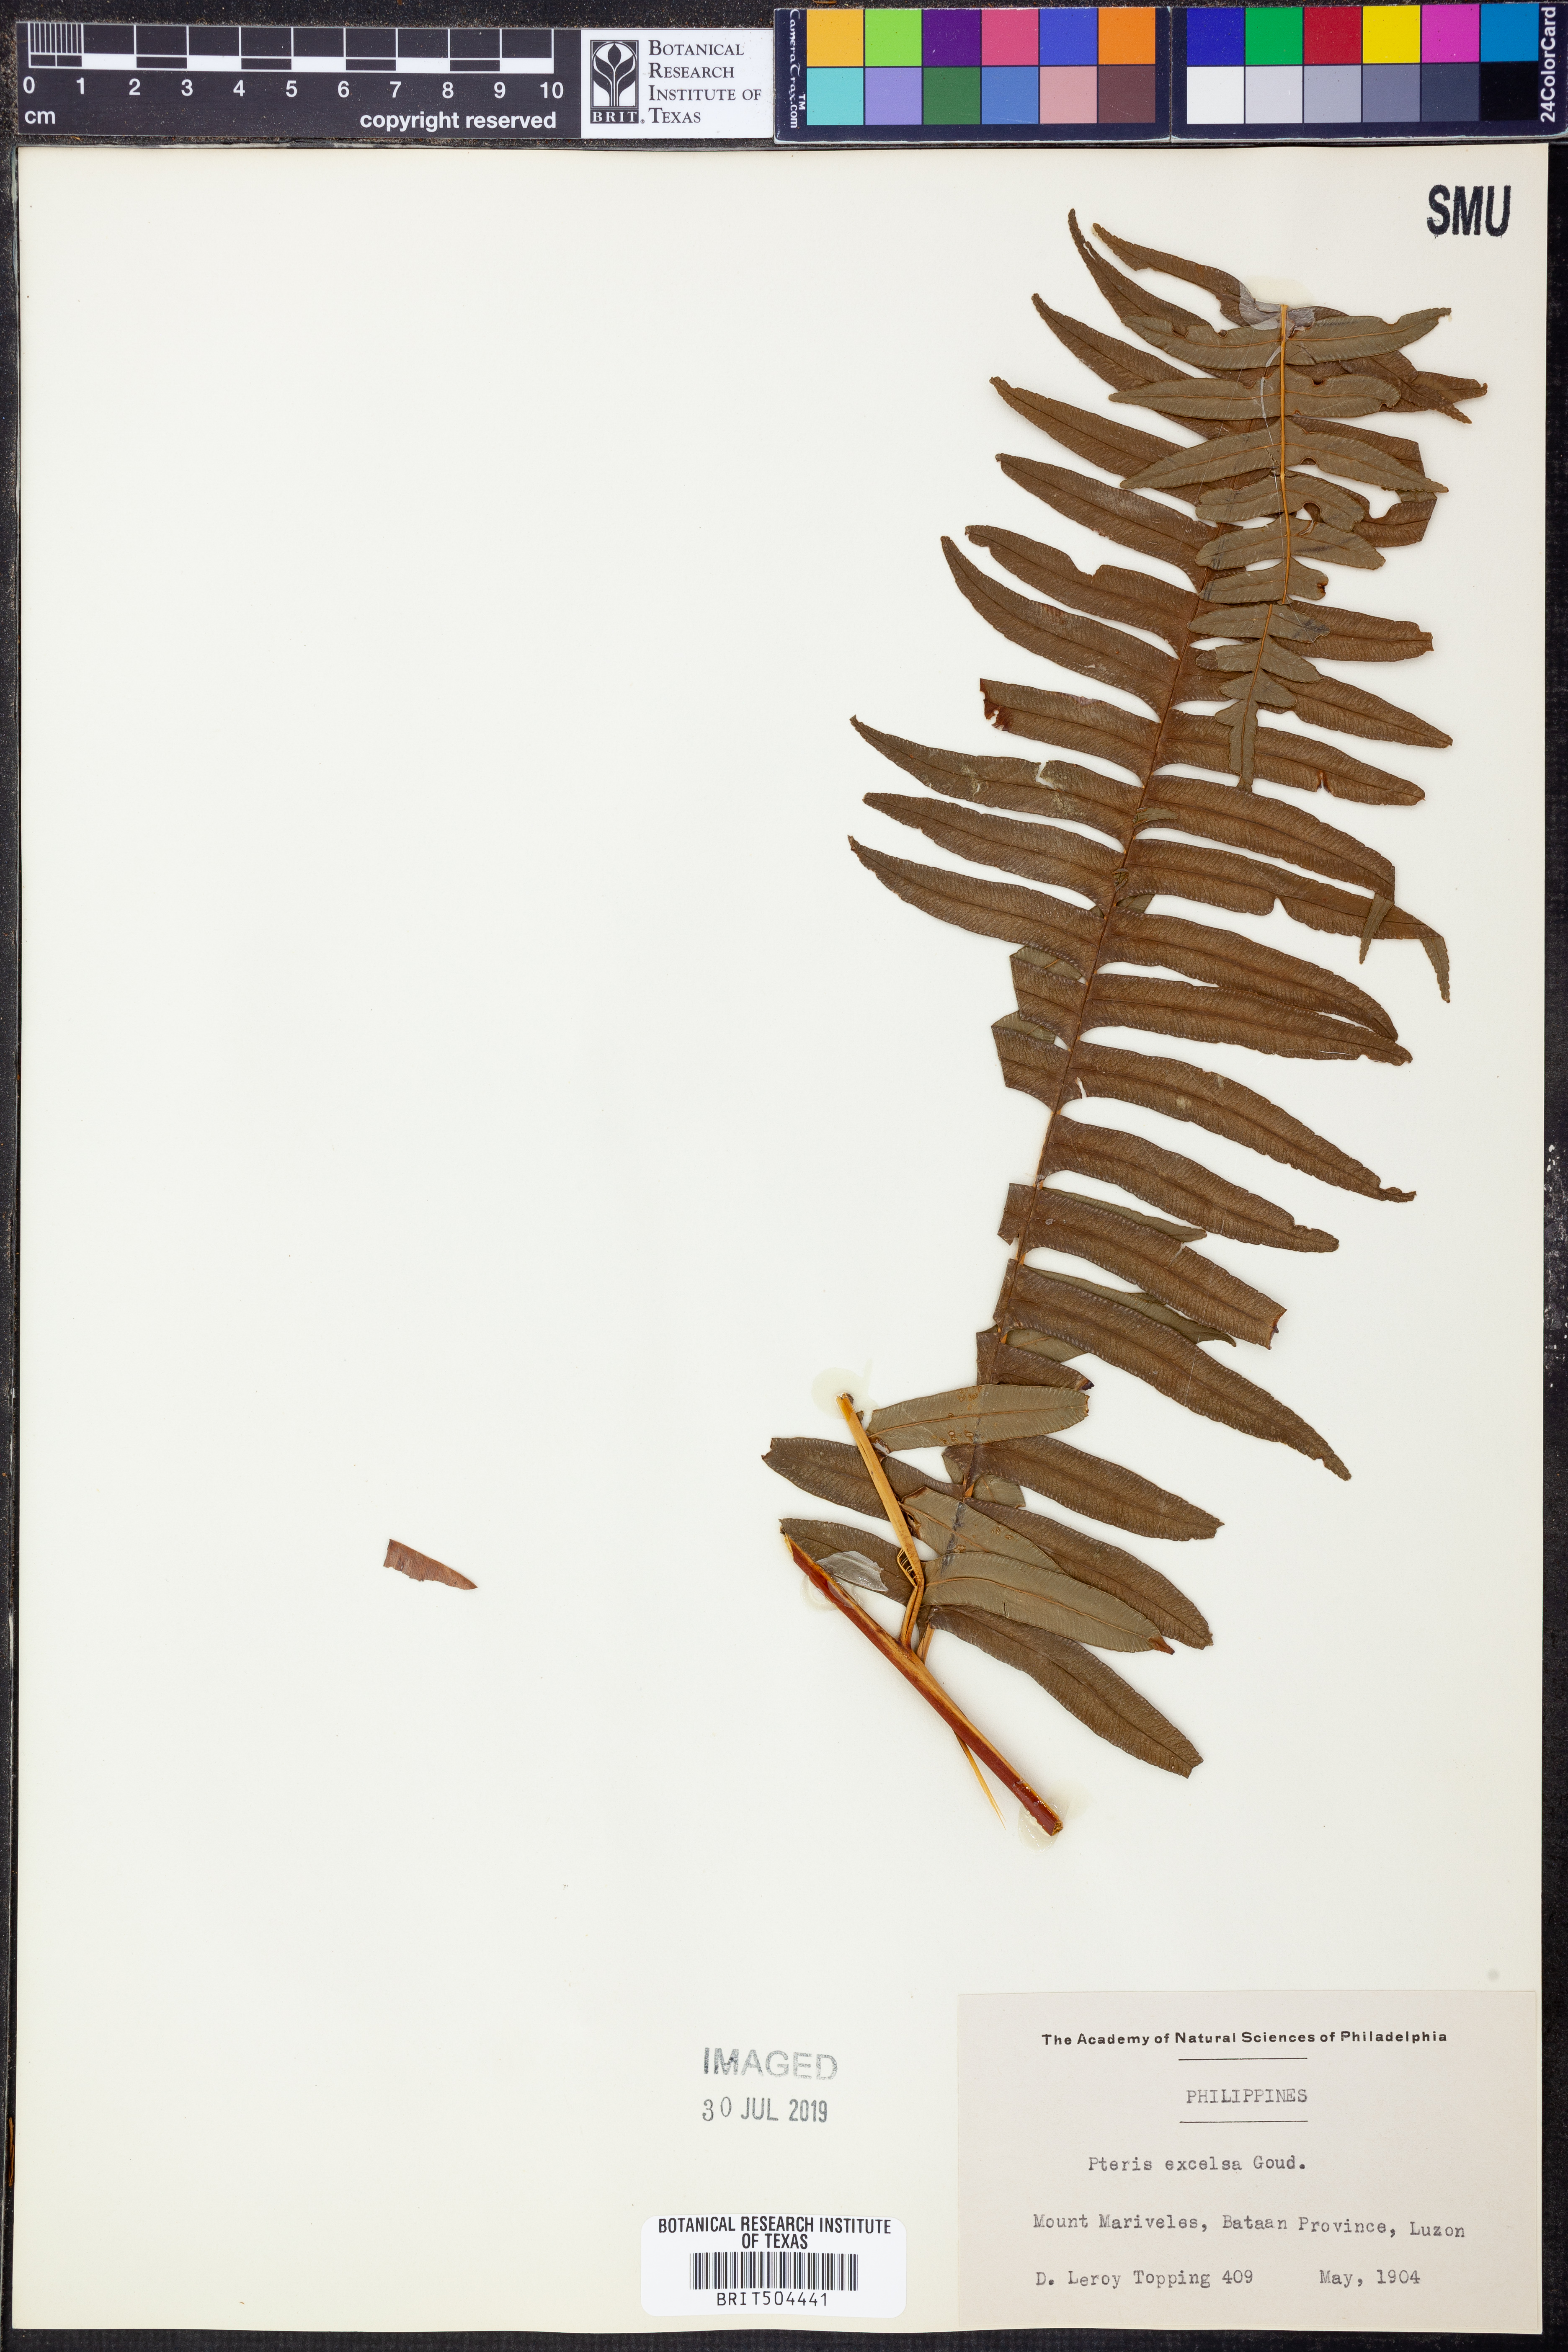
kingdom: Plantae
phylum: Tracheophyta
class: Polypodiopsida
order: Polypodiales
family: Pteridaceae
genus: Pteris
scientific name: Pteris terminalis
